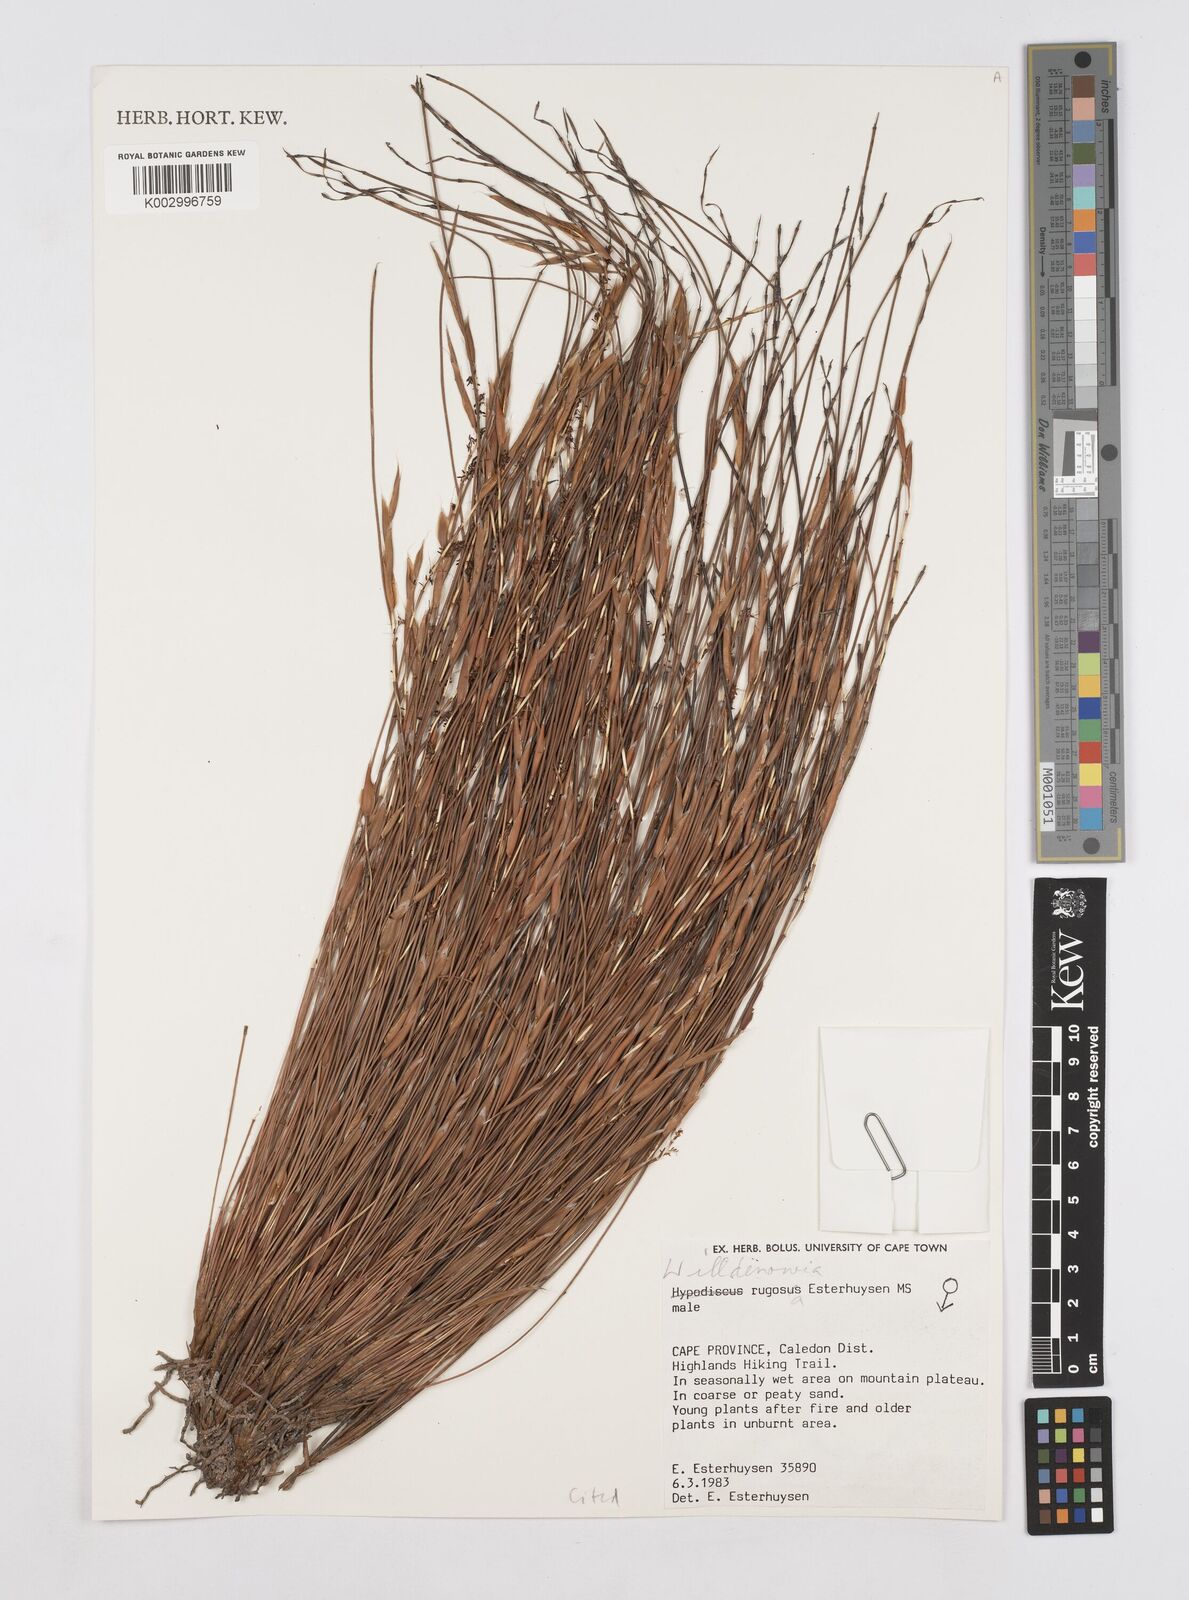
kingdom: Plantae
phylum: Tracheophyta
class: Liliopsida
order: Poales
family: Restionaceae
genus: Willdenowia
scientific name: Willdenowia rugosa
